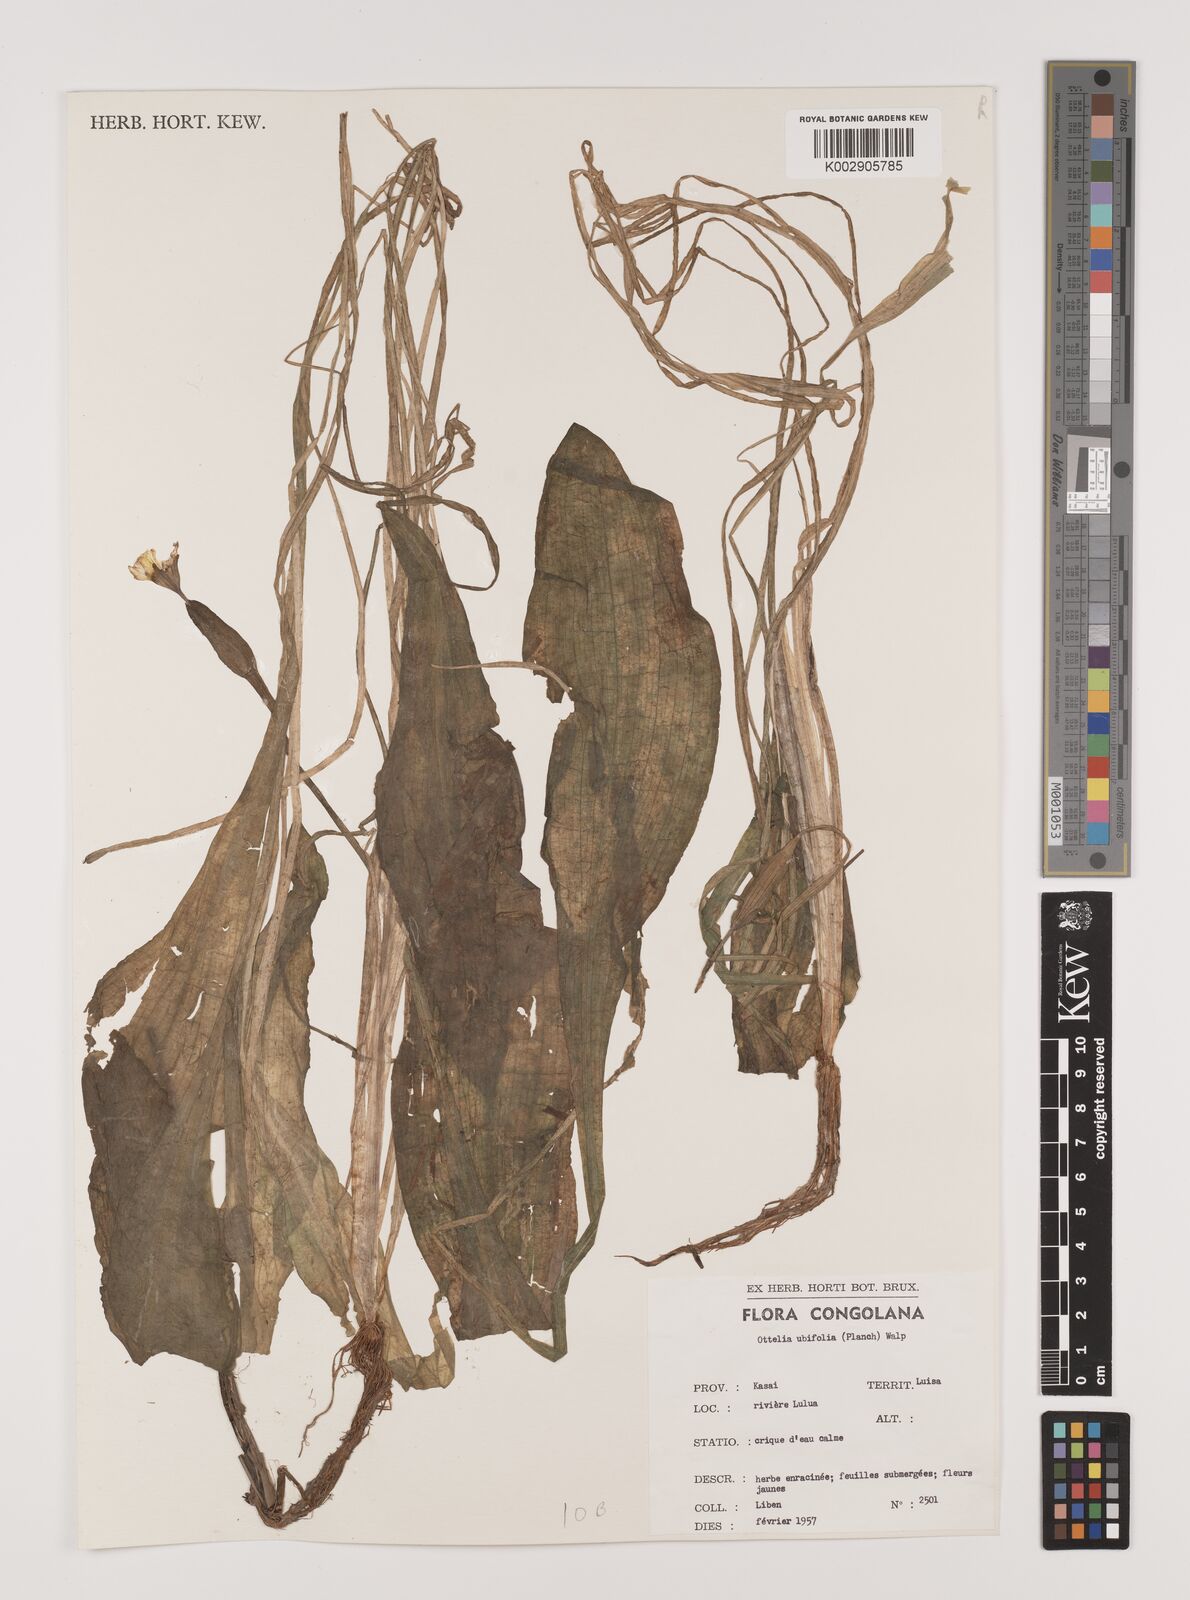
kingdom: Plantae
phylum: Tracheophyta
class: Liliopsida
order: Alismatales
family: Hydrocharitaceae
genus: Ottelia
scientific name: Ottelia ulvifolia
